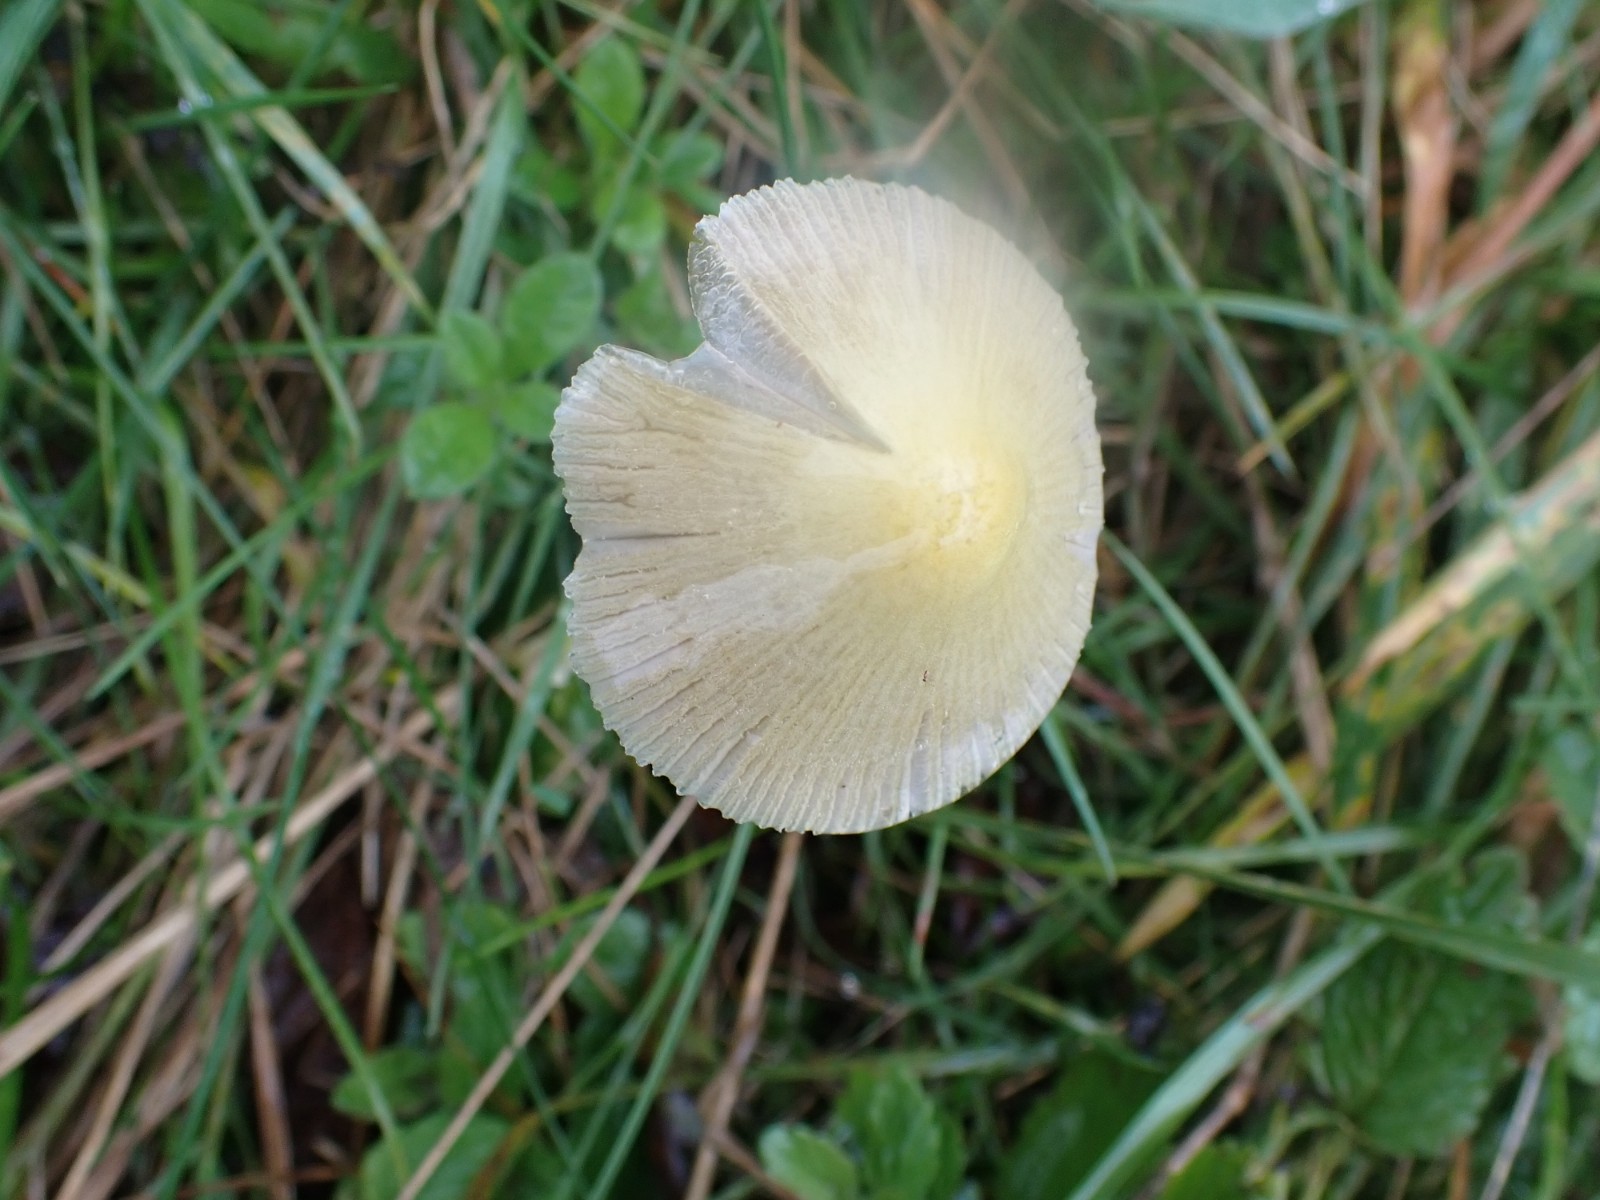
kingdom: Fungi
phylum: Basidiomycota
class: Agaricomycetes
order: Agaricales
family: Bolbitiaceae
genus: Bolbitius
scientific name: Bolbitius titubans
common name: almindelig gulhat
